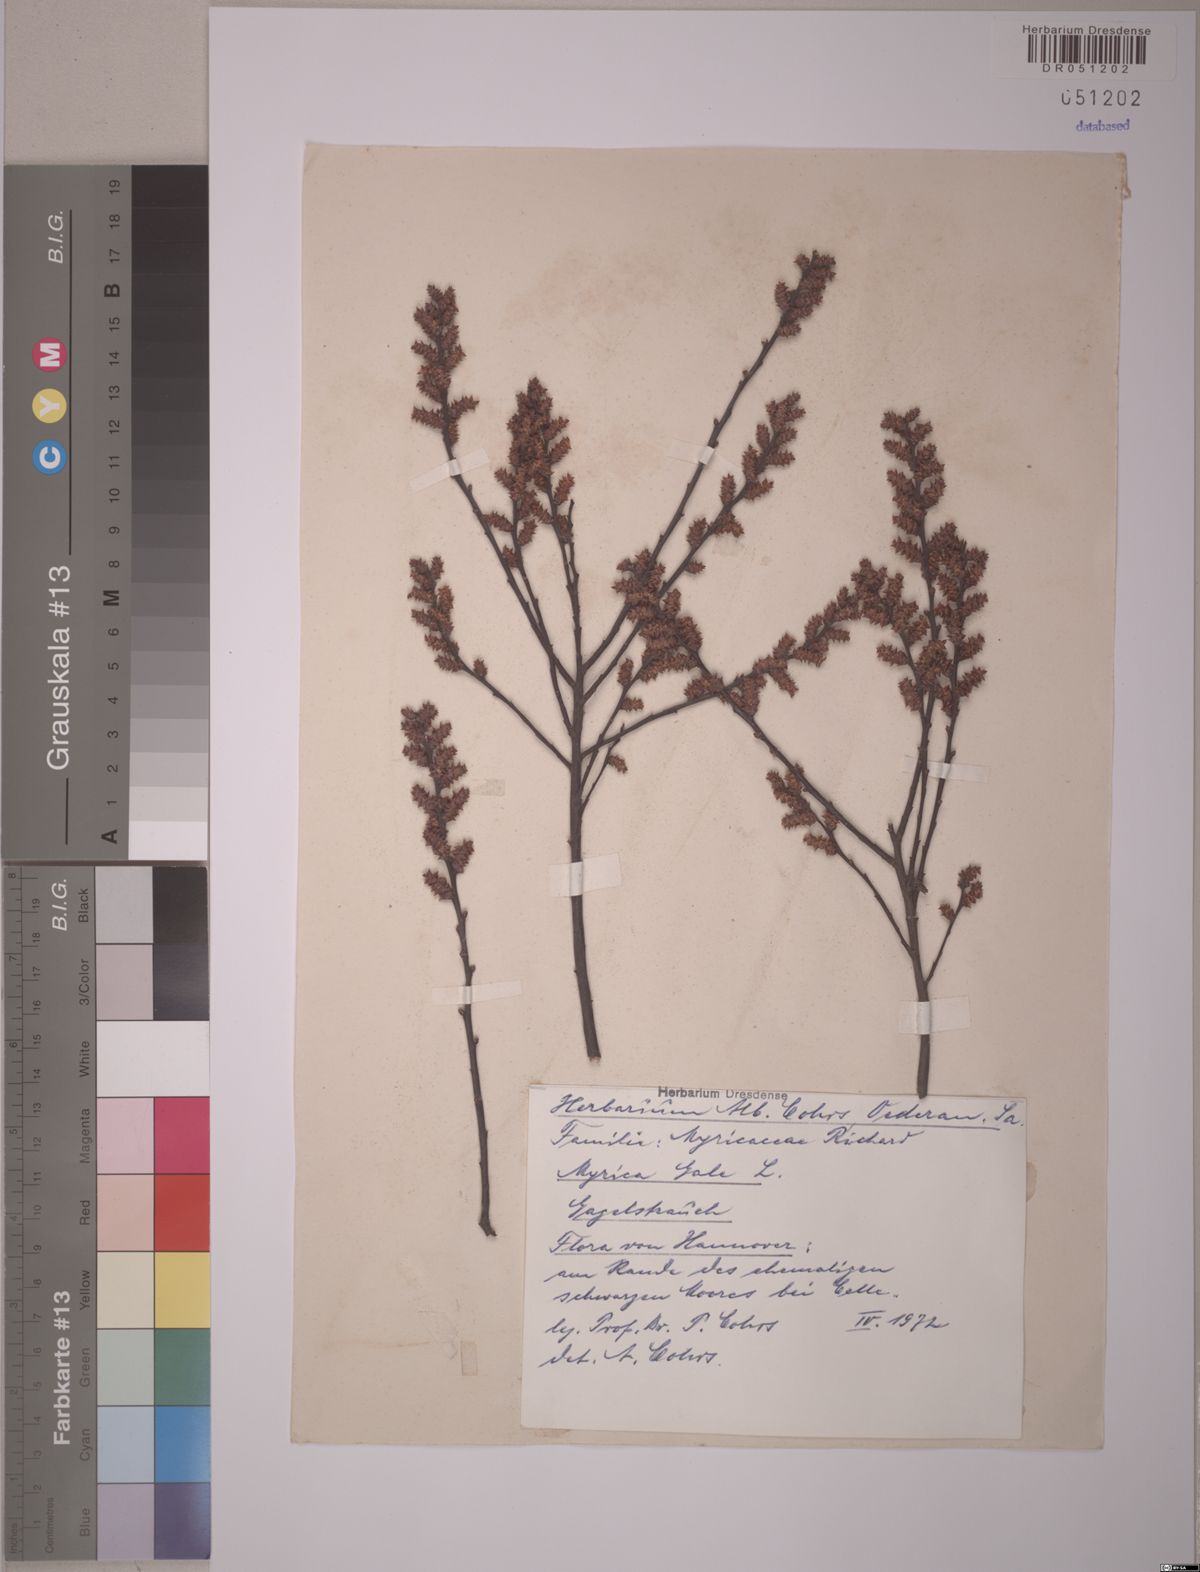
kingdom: Plantae
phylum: Tracheophyta
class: Magnoliopsida
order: Fagales
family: Myricaceae
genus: Myrica
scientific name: Myrica gale
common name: Sweet gale
